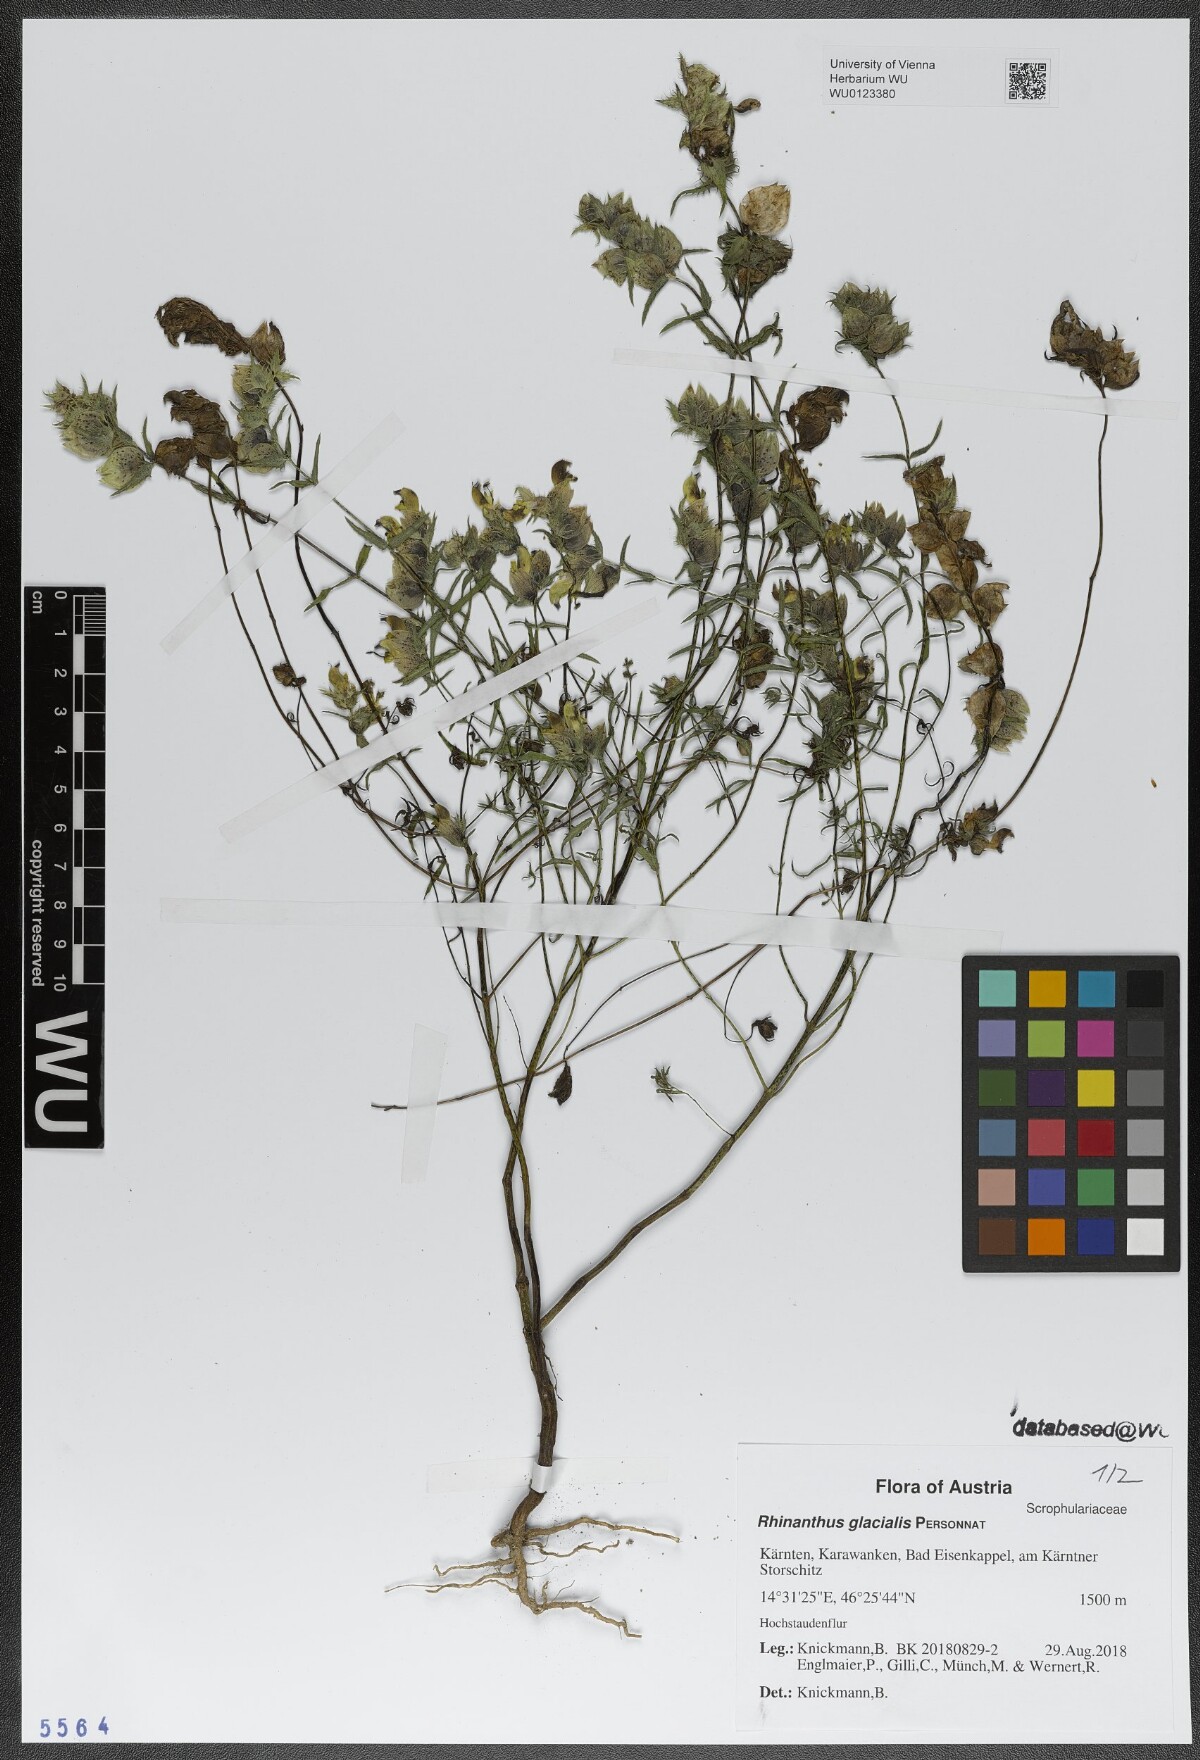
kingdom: Plantae
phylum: Tracheophyta
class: Magnoliopsida
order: Lamiales
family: Orobanchaceae
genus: Rhinanthus
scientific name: Rhinanthus glacialis
